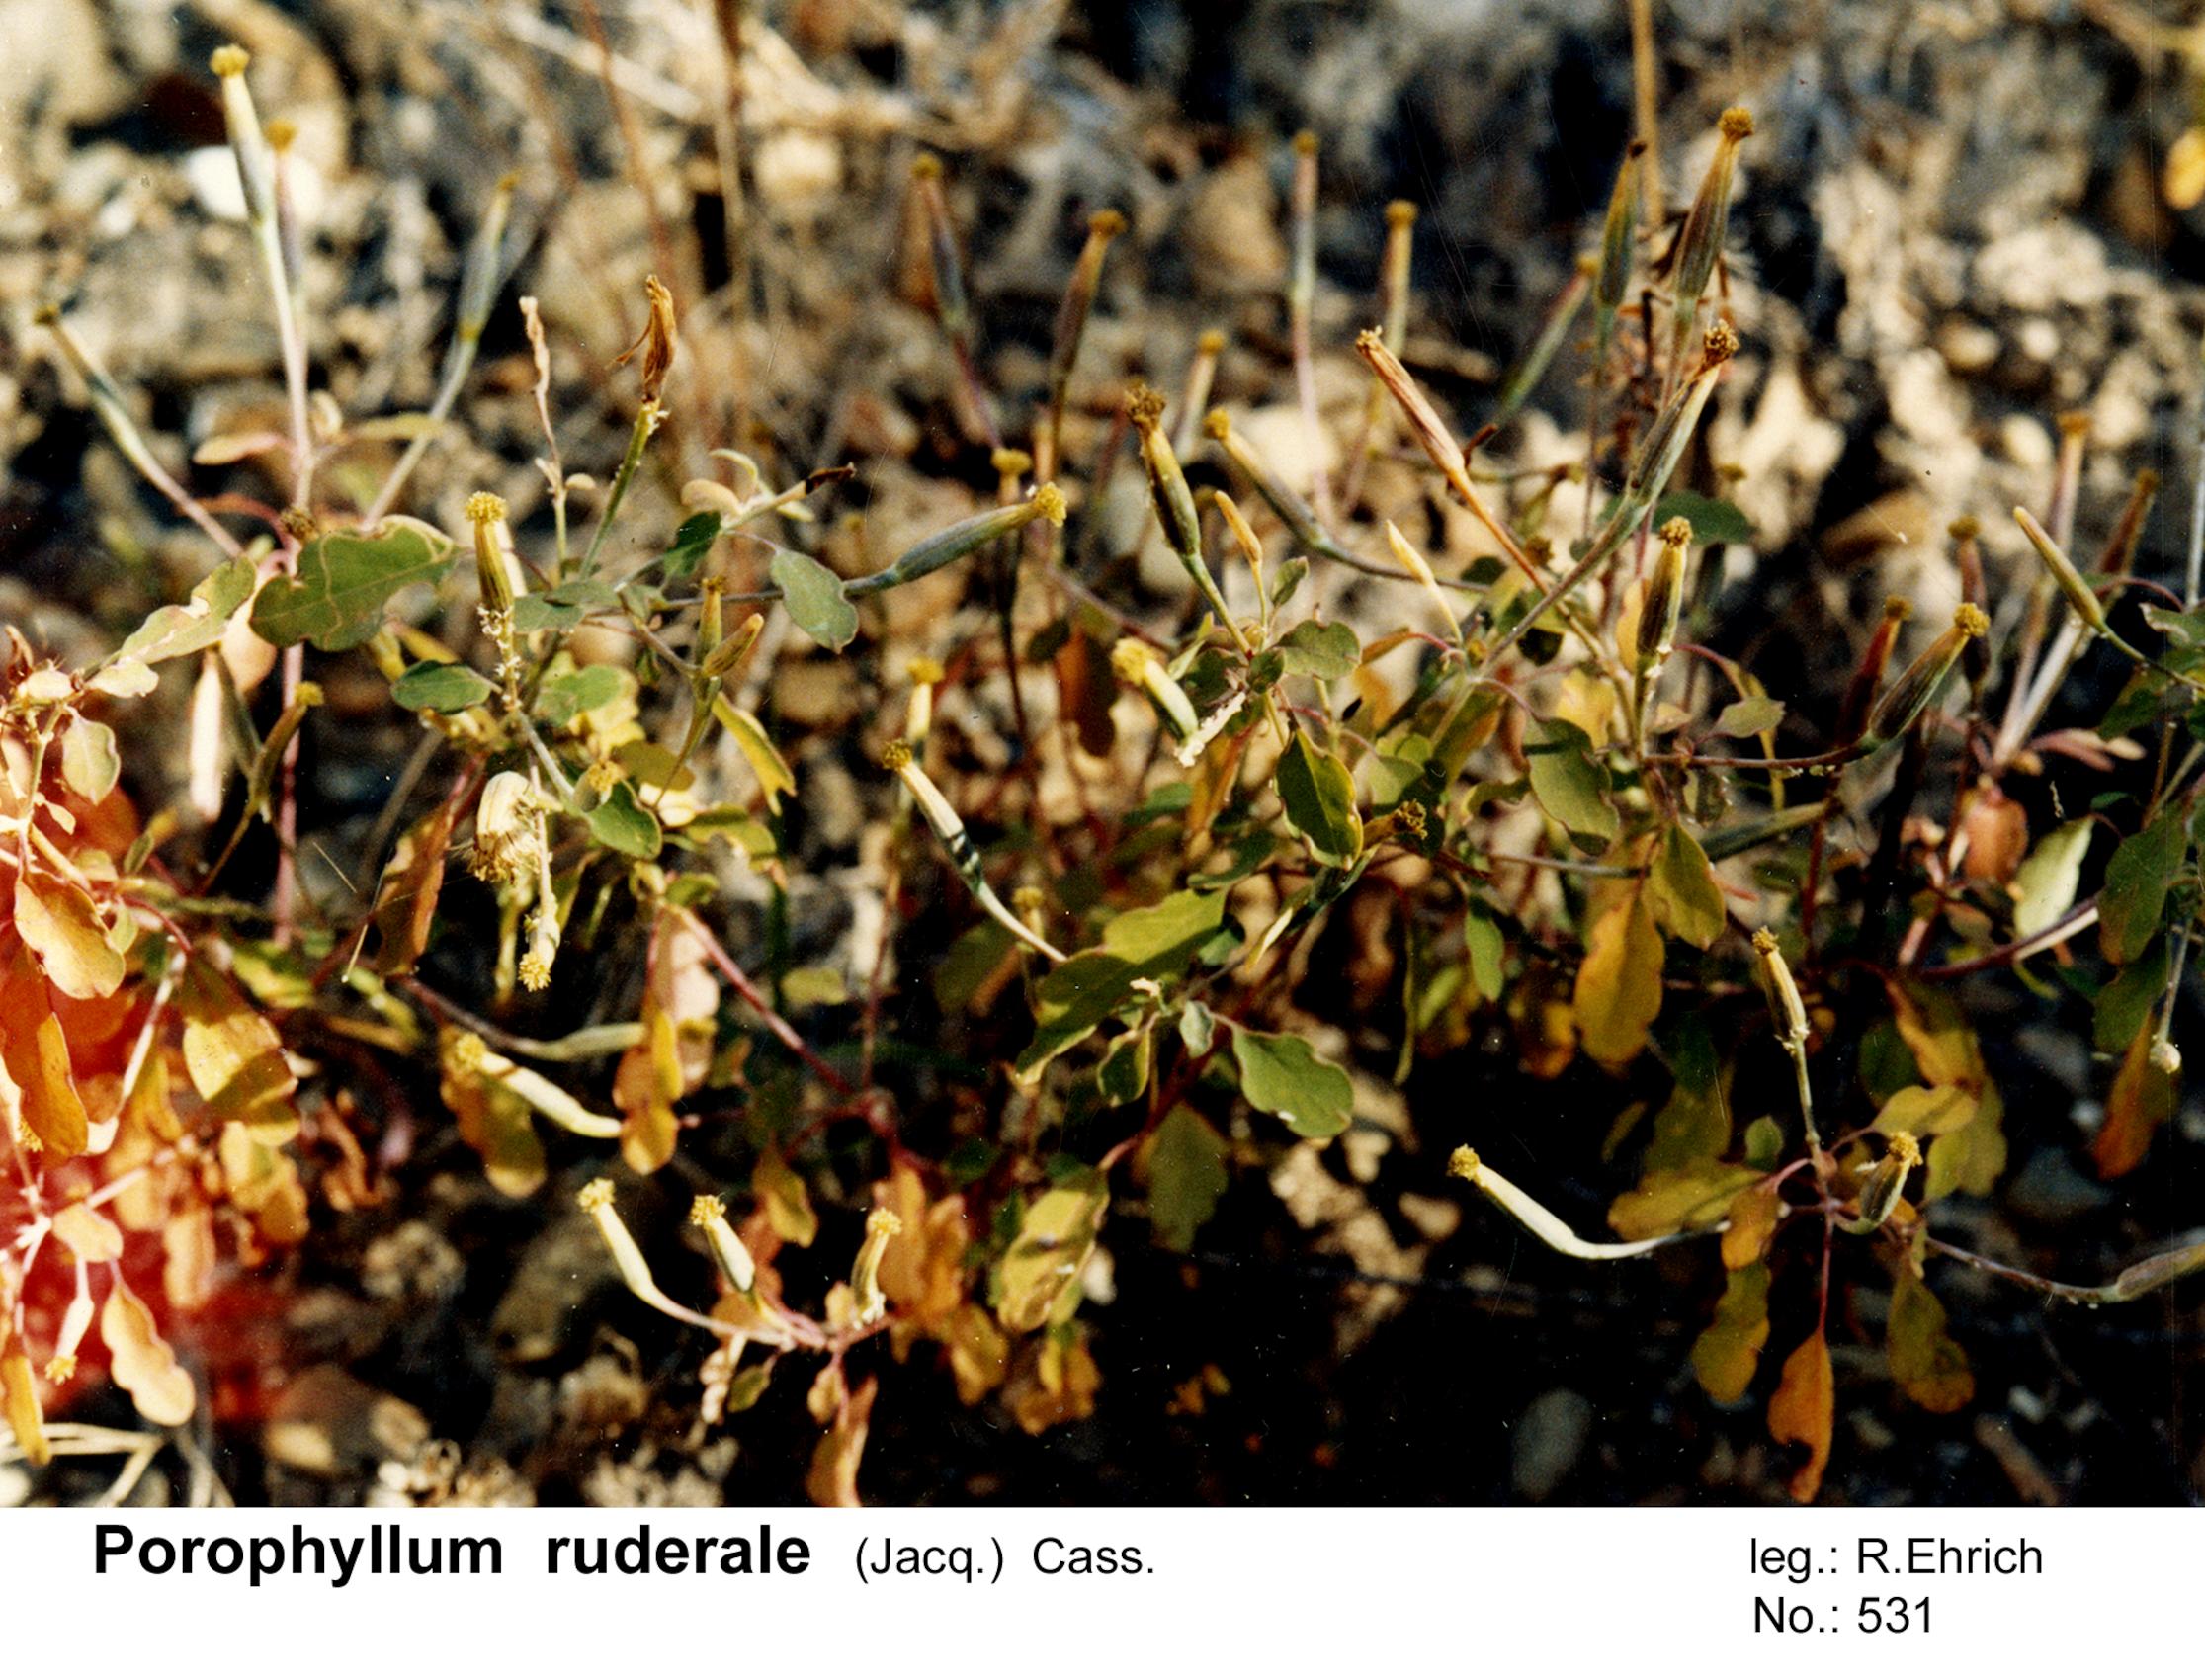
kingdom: Plantae
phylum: Tracheophyta
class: Magnoliopsida
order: Asterales
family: Asteraceae
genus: Porophyllum
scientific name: Porophyllum ruderale
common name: Yerba porosa
